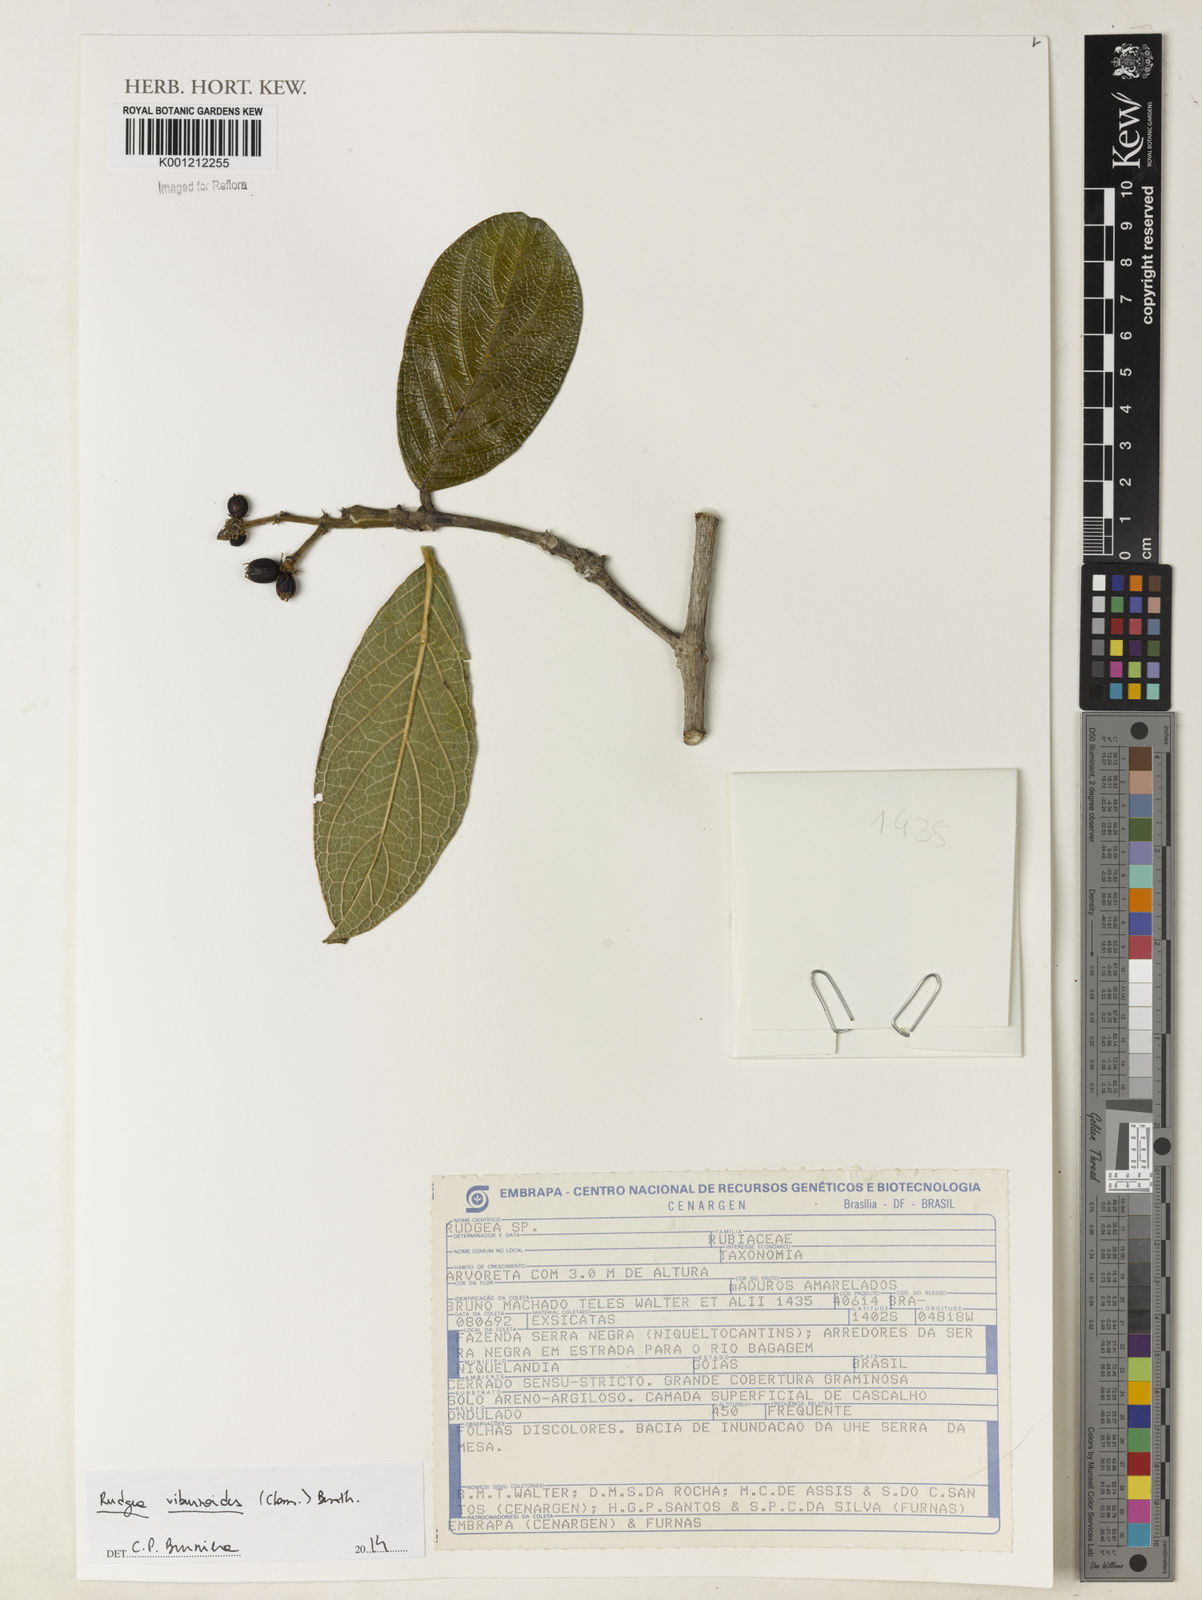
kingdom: Plantae
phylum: Tracheophyta
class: Magnoliopsida
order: Gentianales
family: Rubiaceae
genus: Rudgea
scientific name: Rudgea viburnoides
